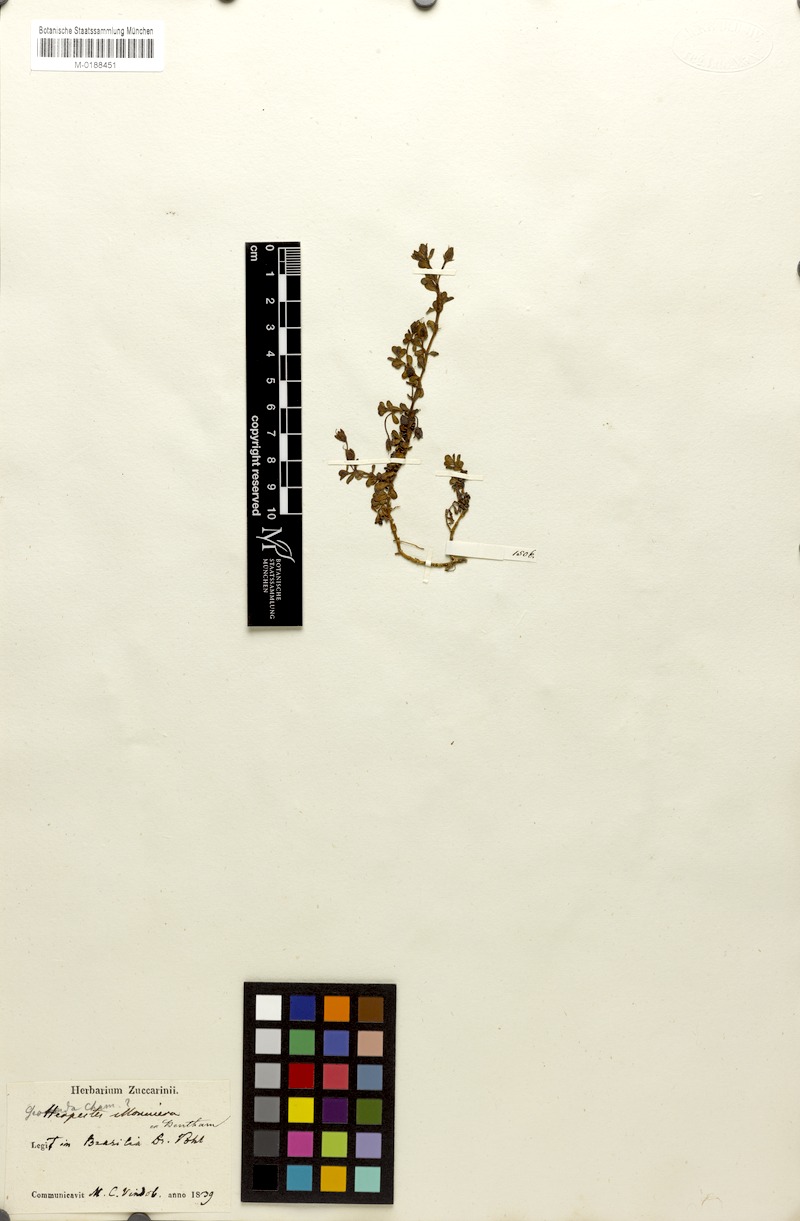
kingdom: Plantae
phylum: Tracheophyta
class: Magnoliopsida
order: Lamiales
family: Plantaginaceae
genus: Bacopa
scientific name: Bacopa monnieri
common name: Indian-pennywort
